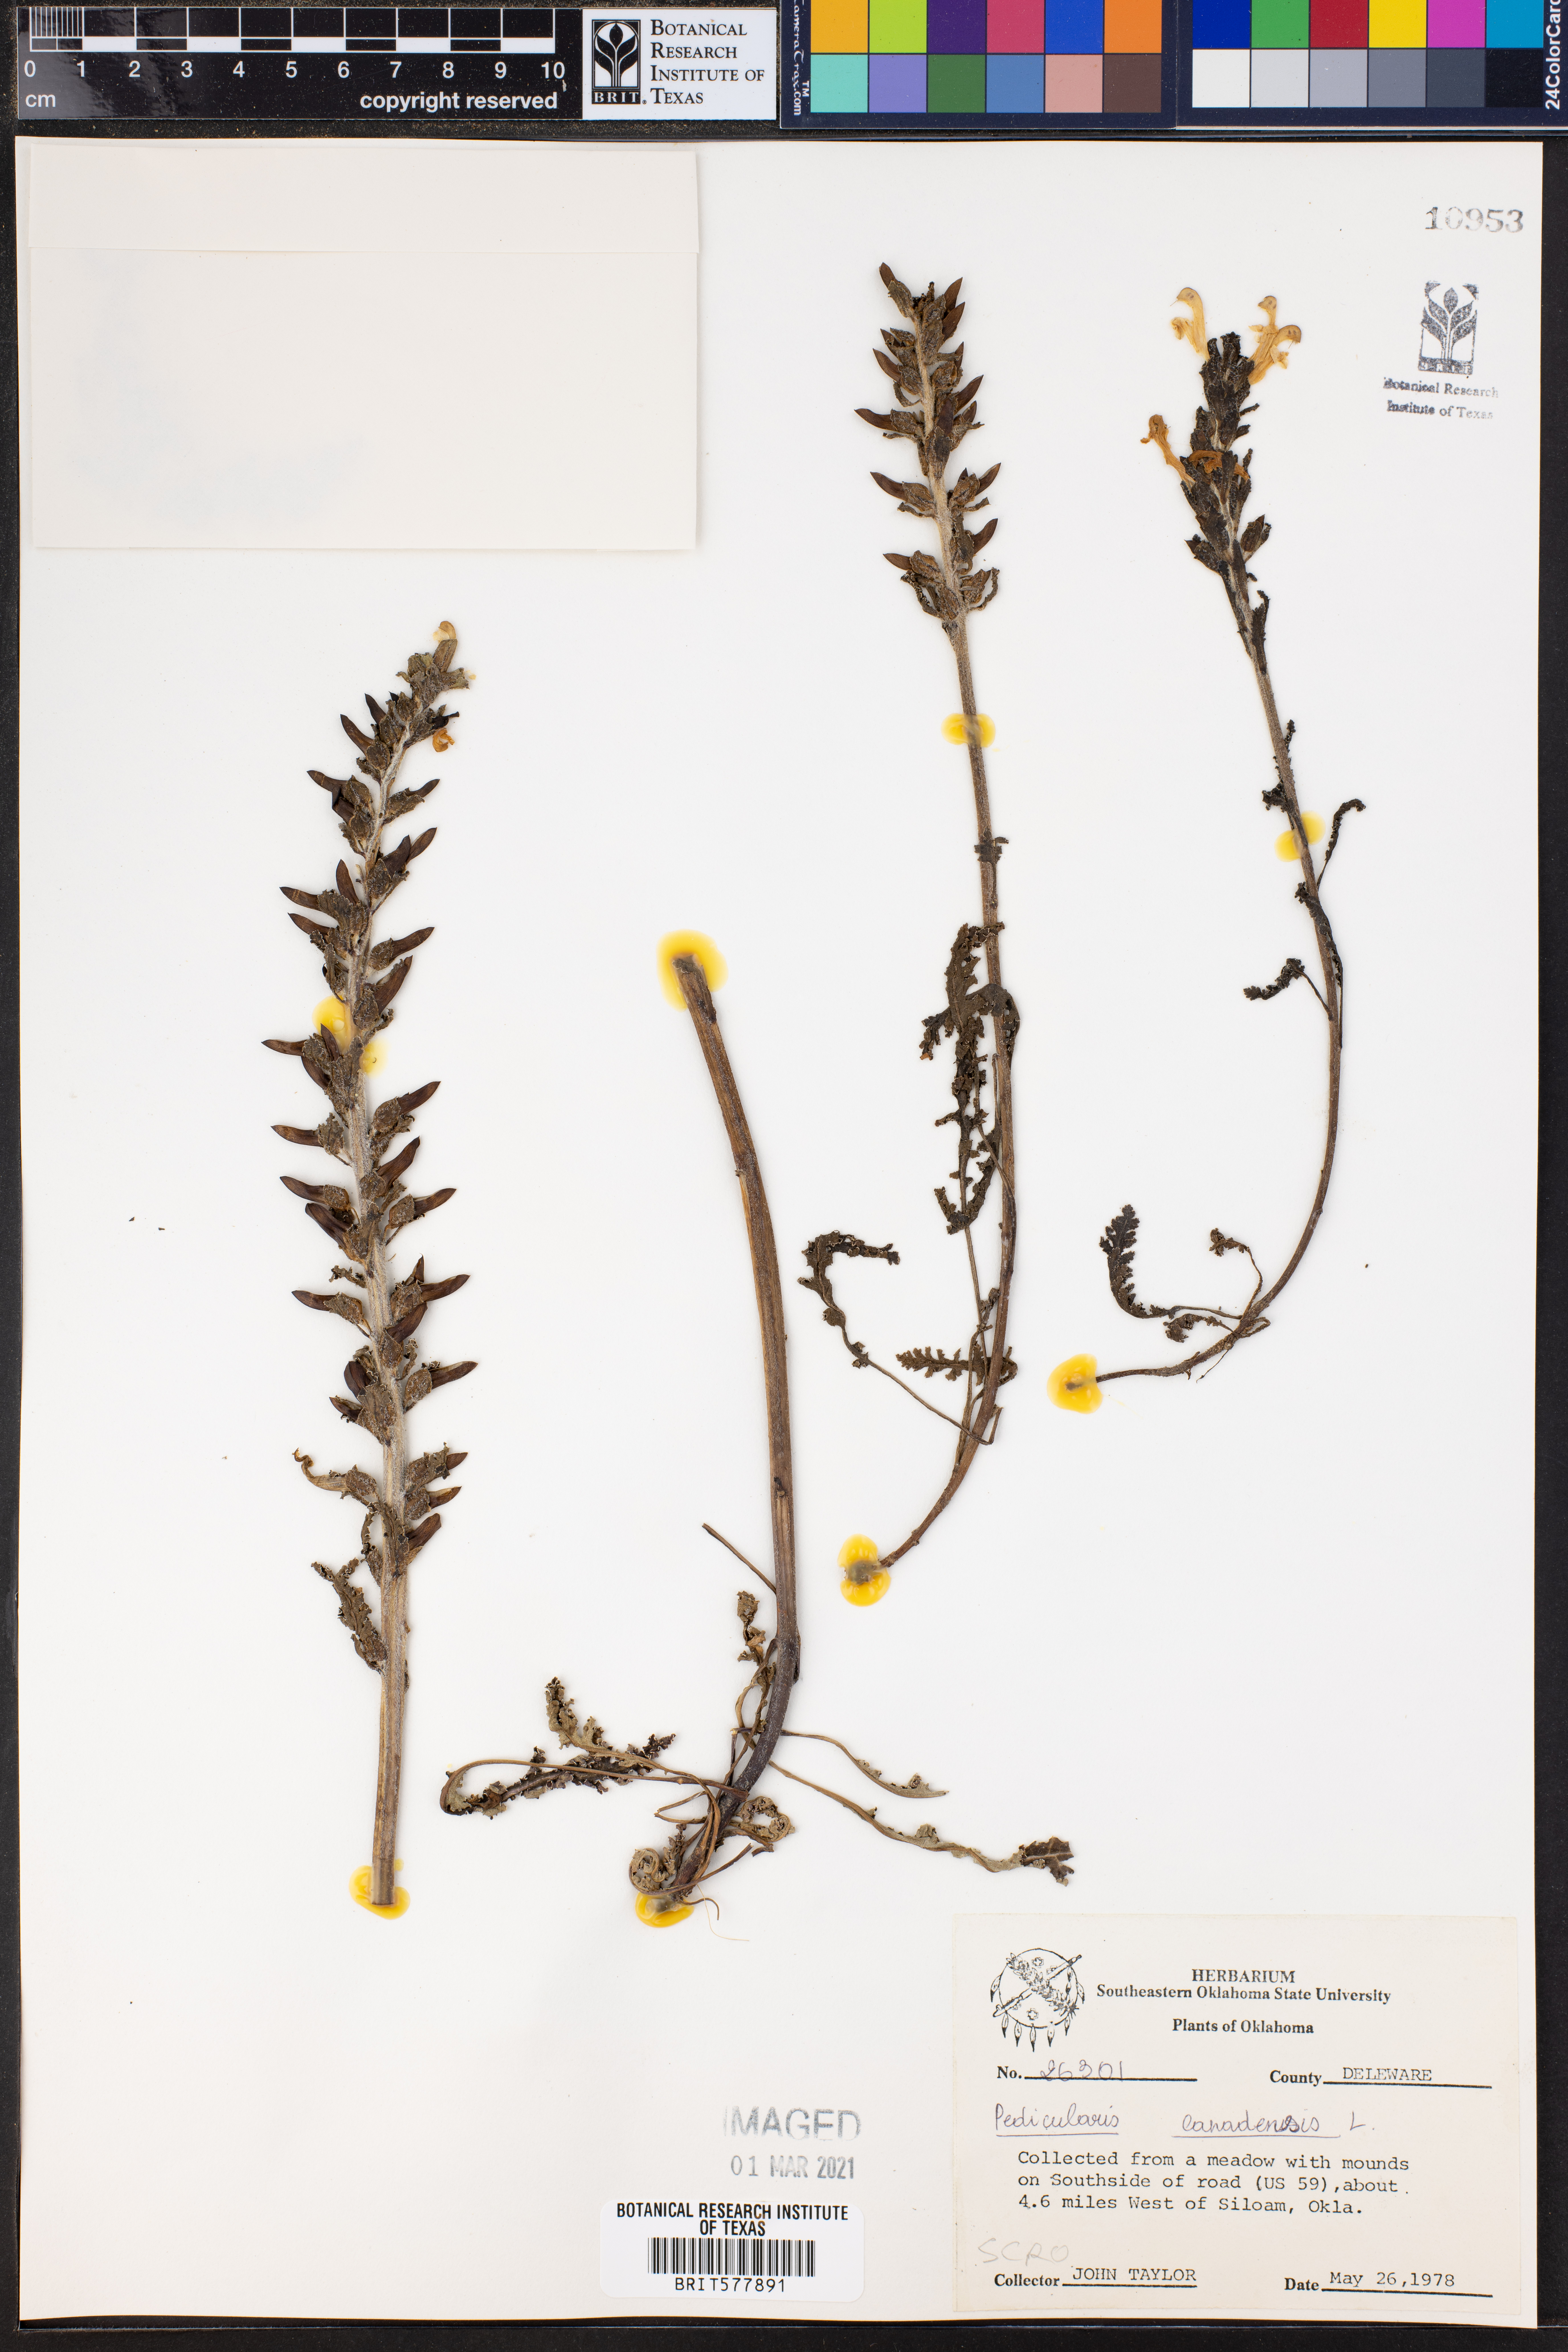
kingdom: Plantae
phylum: Tracheophyta
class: Magnoliopsida
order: Lamiales
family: Orobanchaceae
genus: Pedicularis
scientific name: Pedicularis canadensis
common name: Early lousewort
